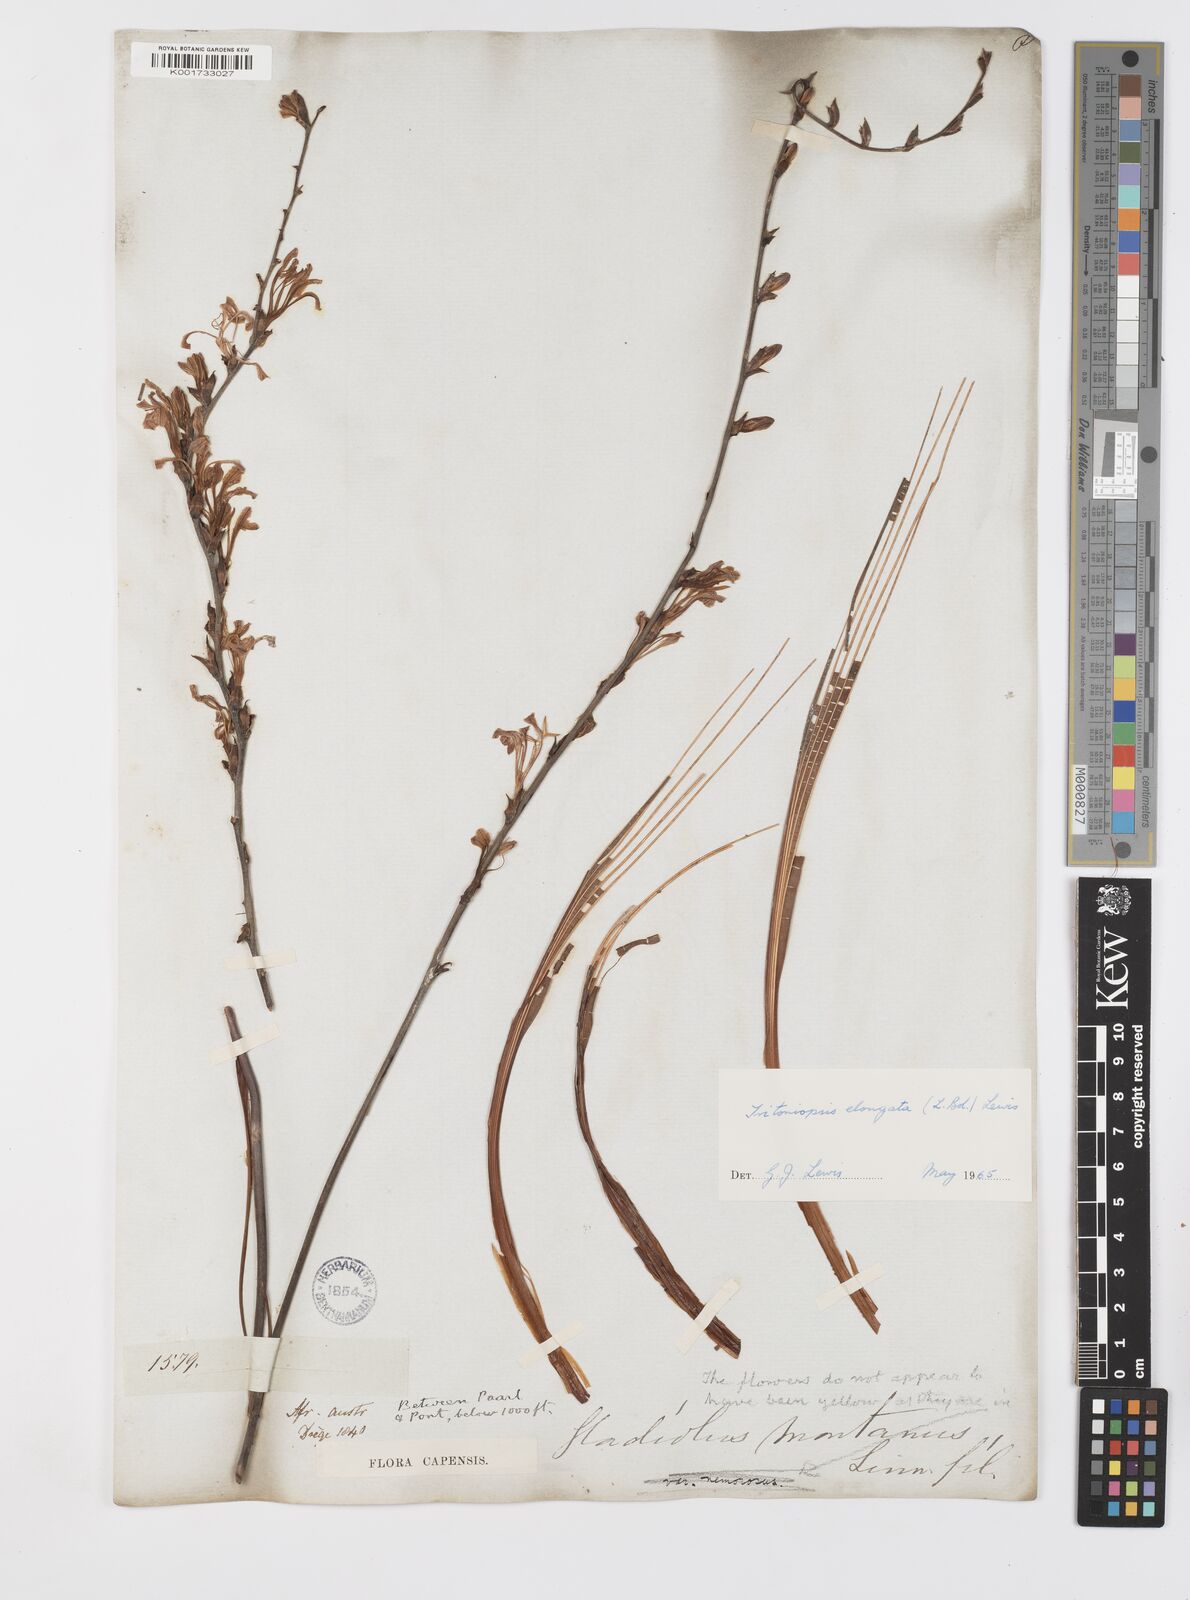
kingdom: Plantae
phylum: Tracheophyta
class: Liliopsida
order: Asparagales
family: Iridaceae
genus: Tritoniopsis
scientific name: Tritoniopsis elongata
